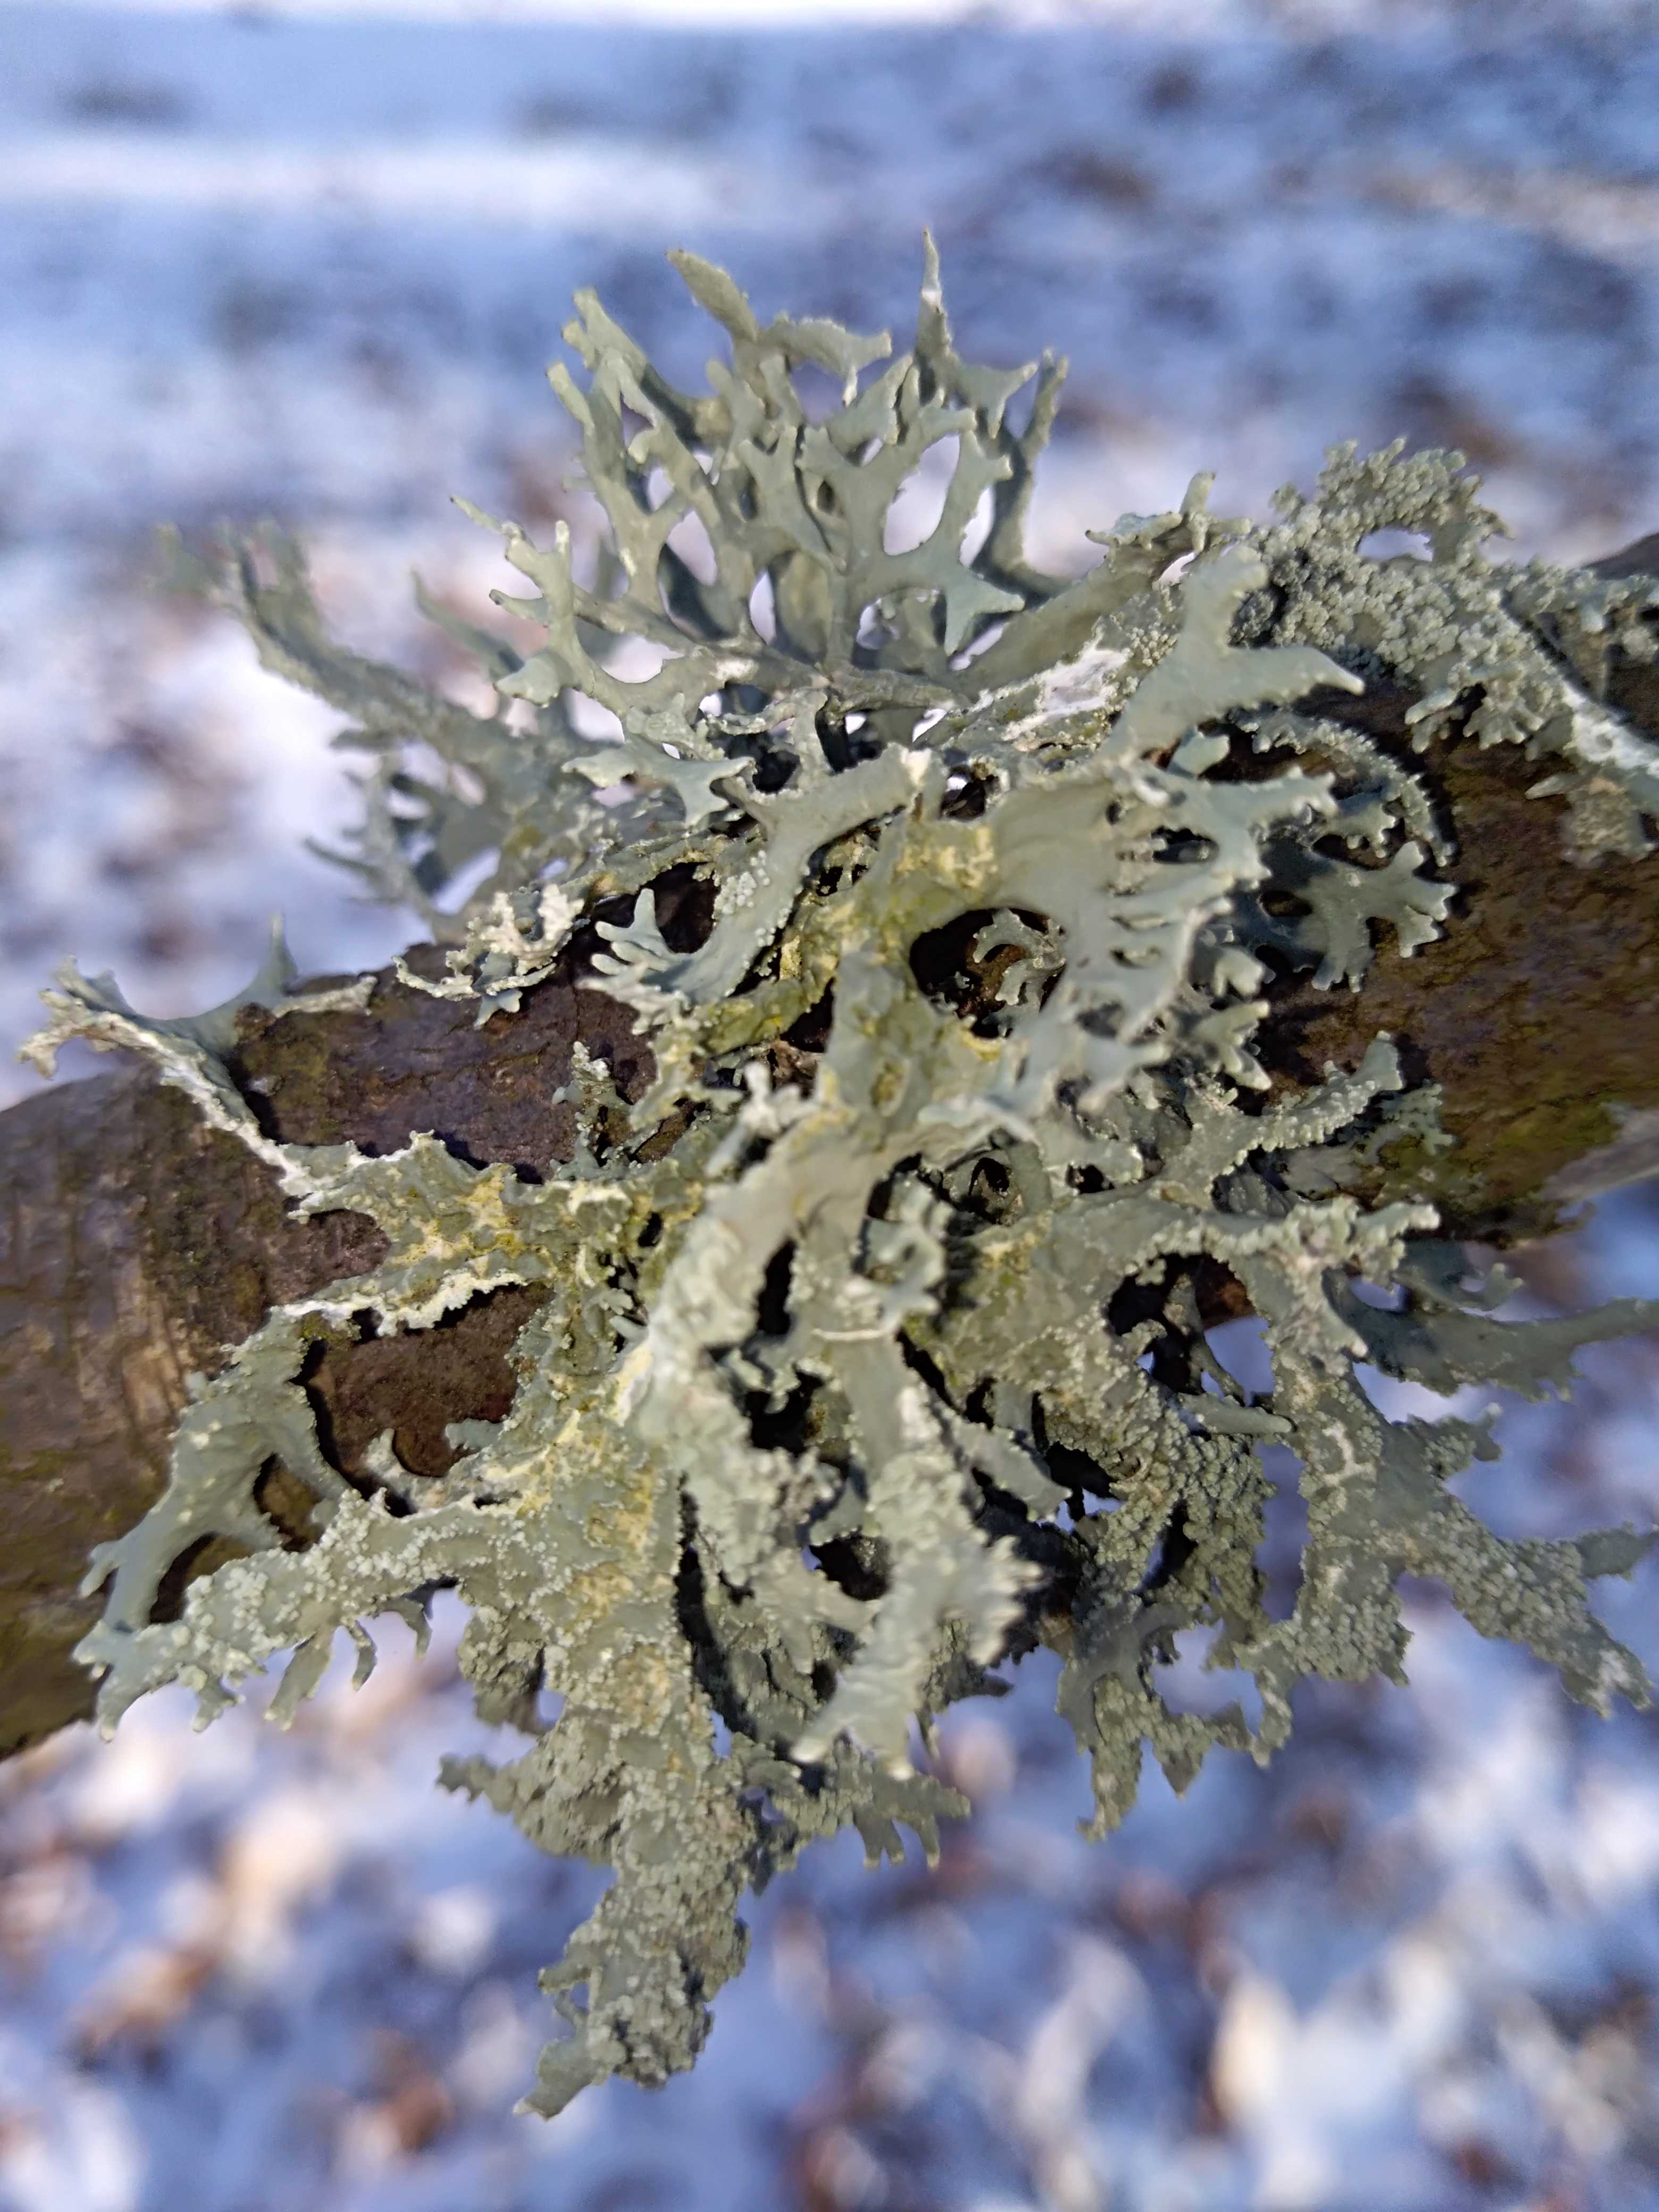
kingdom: Fungi
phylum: Ascomycota
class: Lecanoromycetes
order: Lecanorales
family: Parmeliaceae
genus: Evernia
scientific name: Evernia prunastri
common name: almindelig slåenlav
